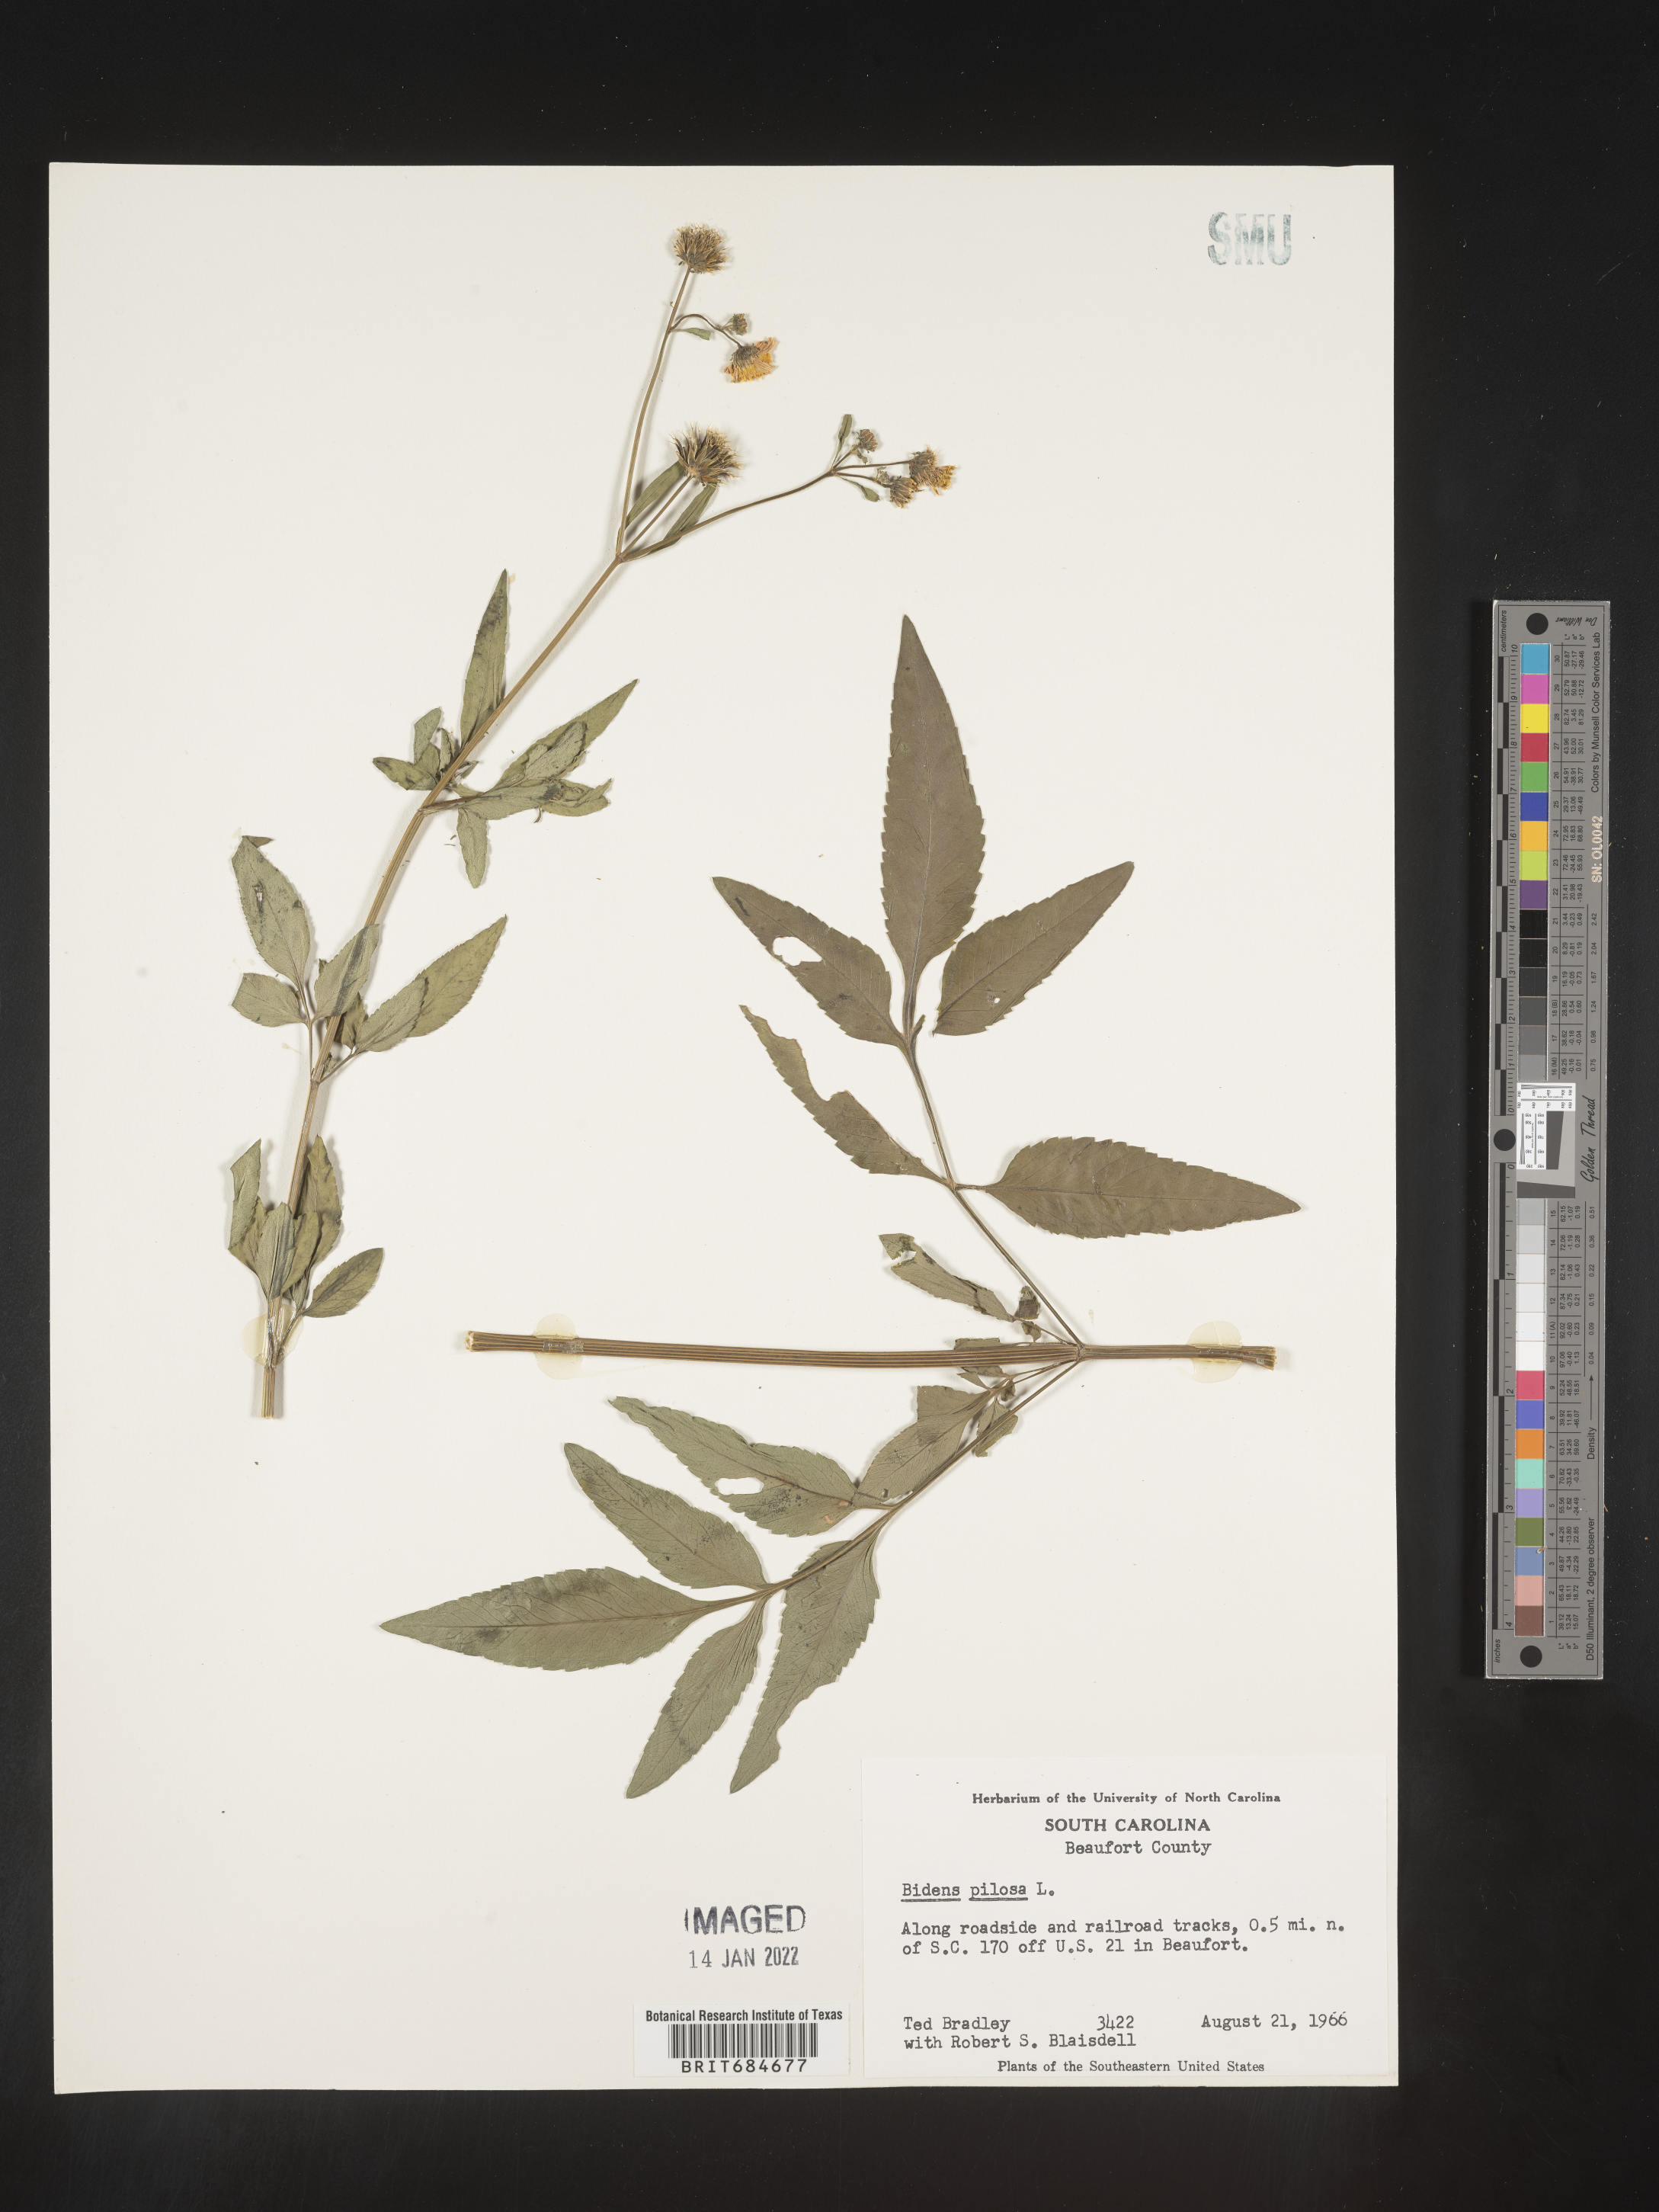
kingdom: Plantae
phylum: Tracheophyta
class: Magnoliopsida
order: Asterales
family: Asteraceae
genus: Bidens
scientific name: Bidens pilosa
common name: Black-jack
